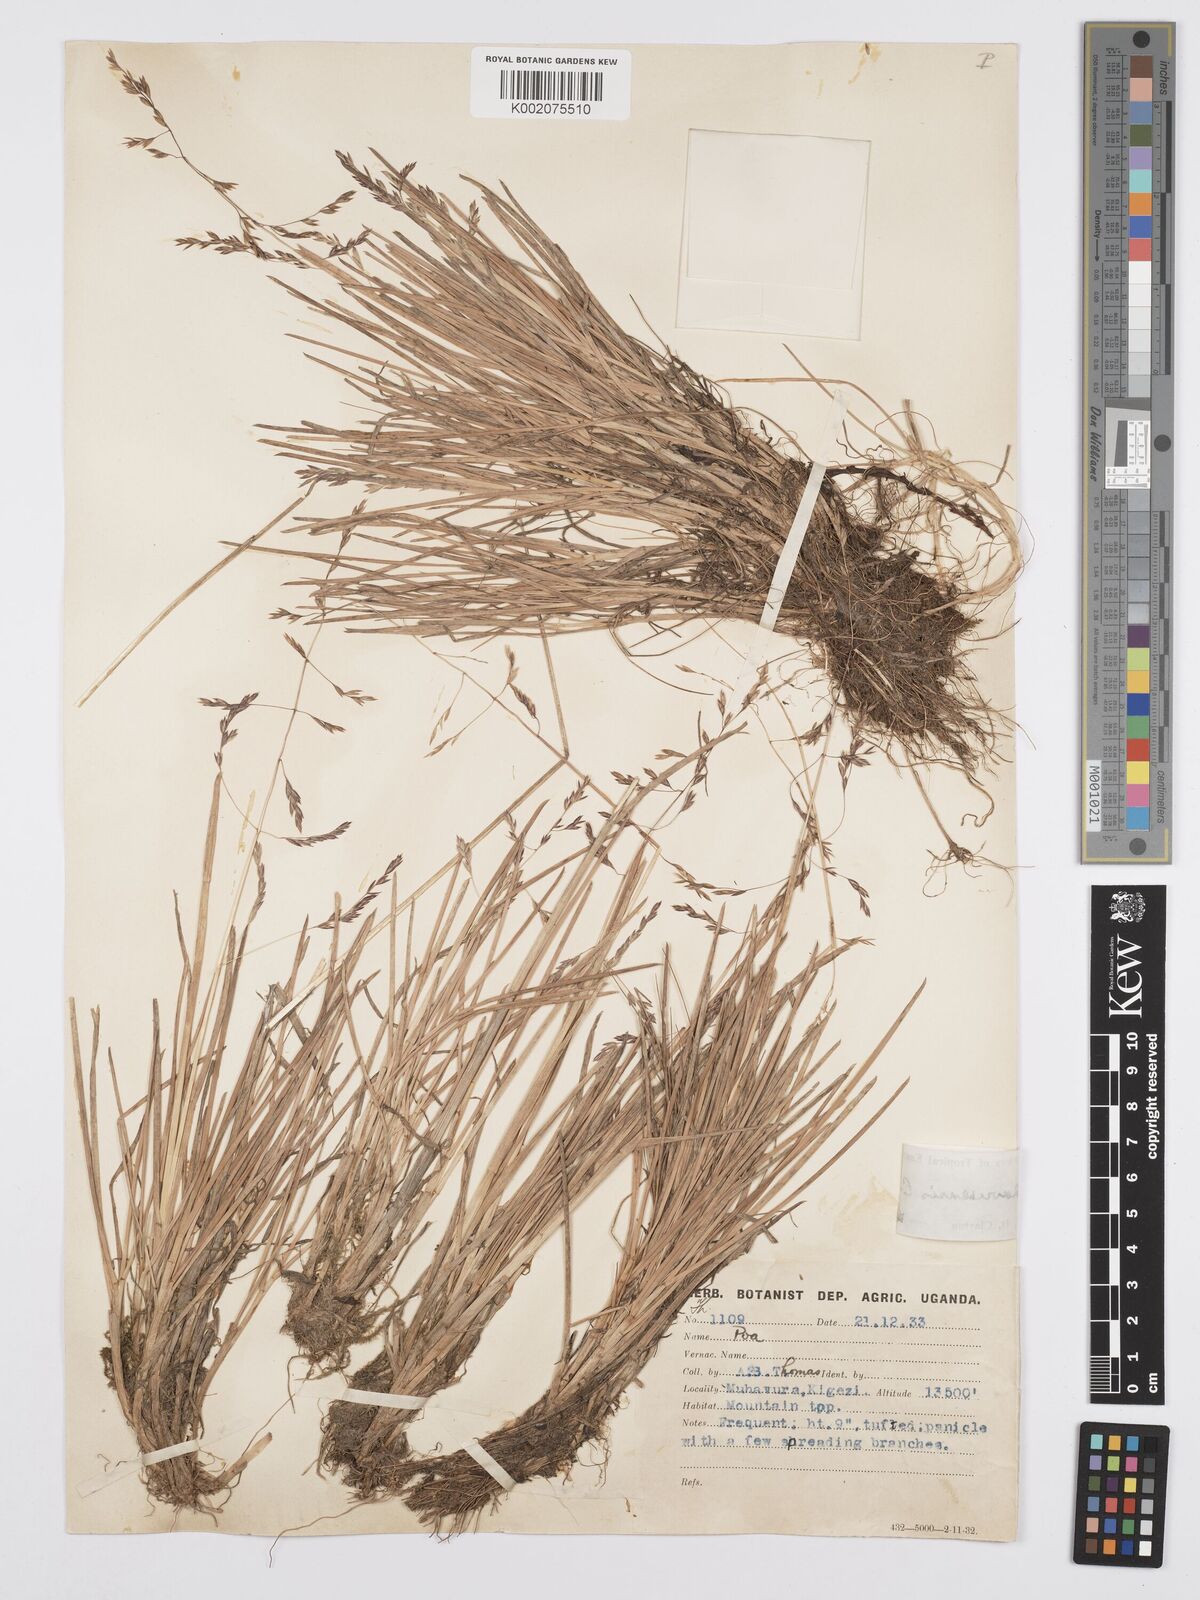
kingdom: Plantae
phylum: Tracheophyta
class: Liliopsida
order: Poales
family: Poaceae
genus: Poa
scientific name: Poa schimperiana
